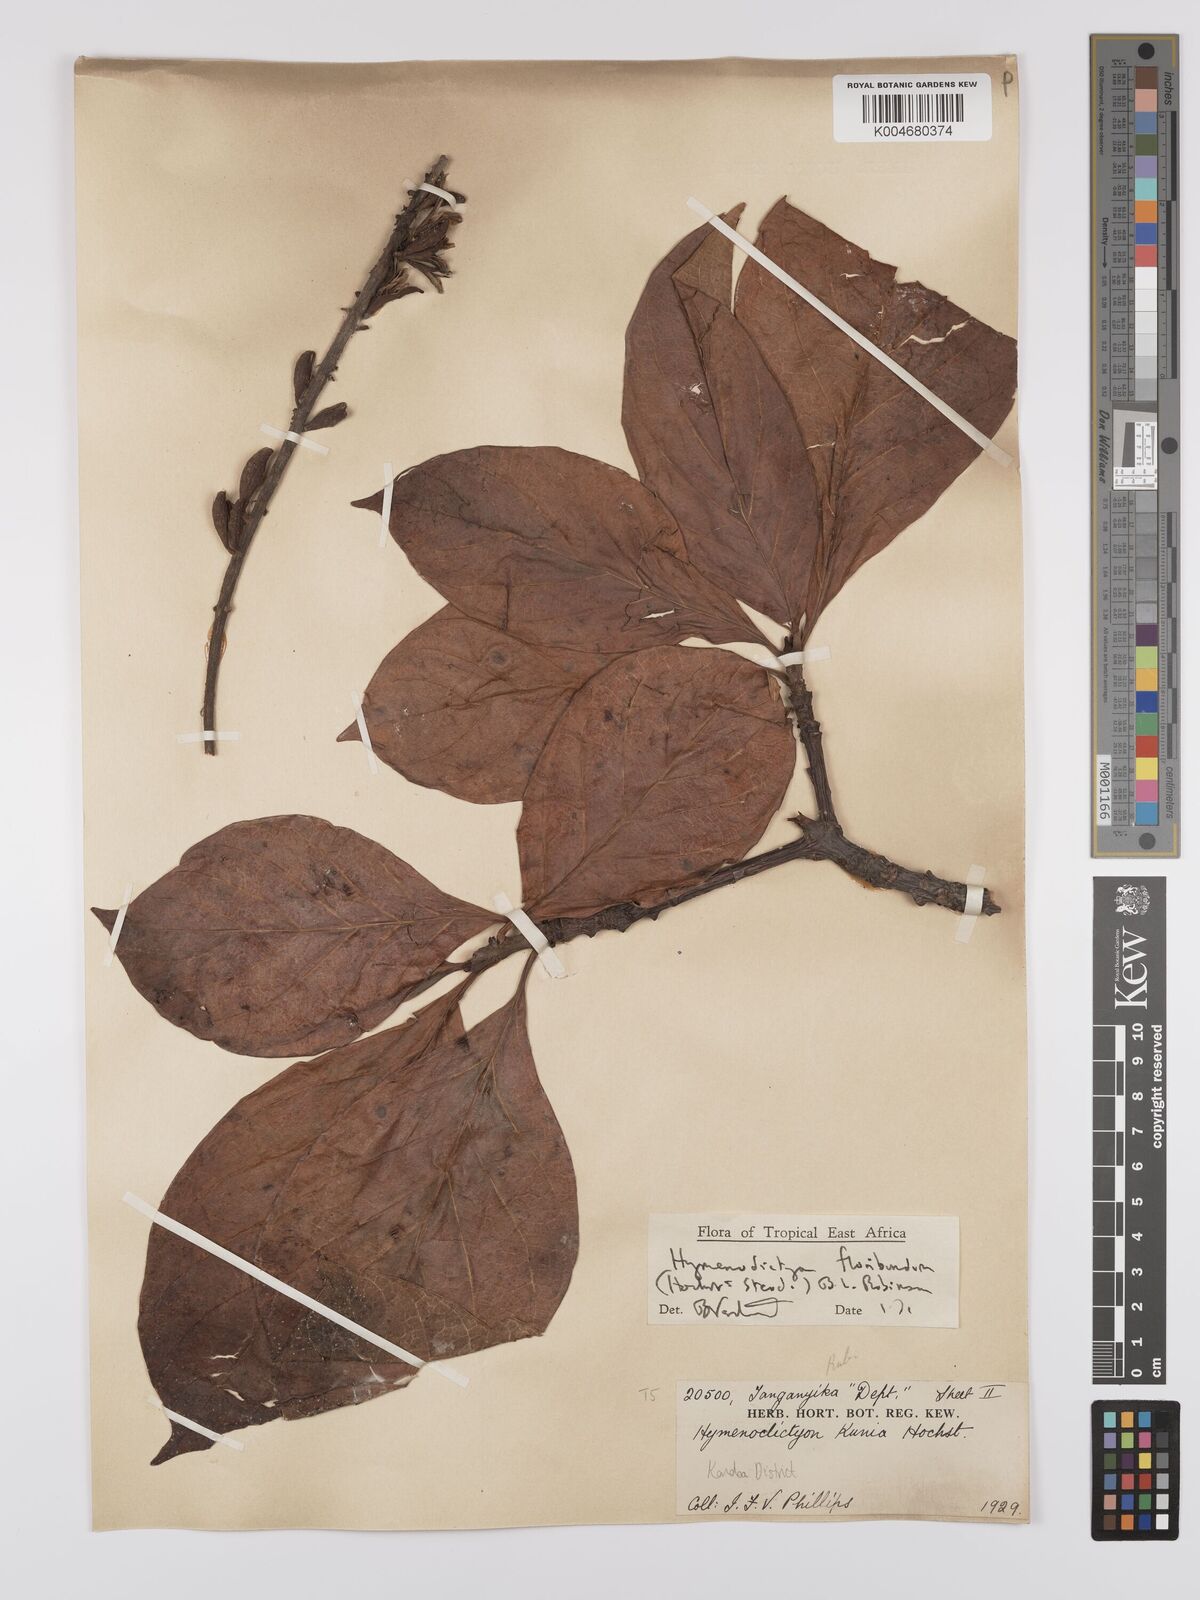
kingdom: Plantae
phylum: Tracheophyta
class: Magnoliopsida
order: Gentianales
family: Rubiaceae
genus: Hymenodictyon
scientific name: Hymenodictyon floribundum
